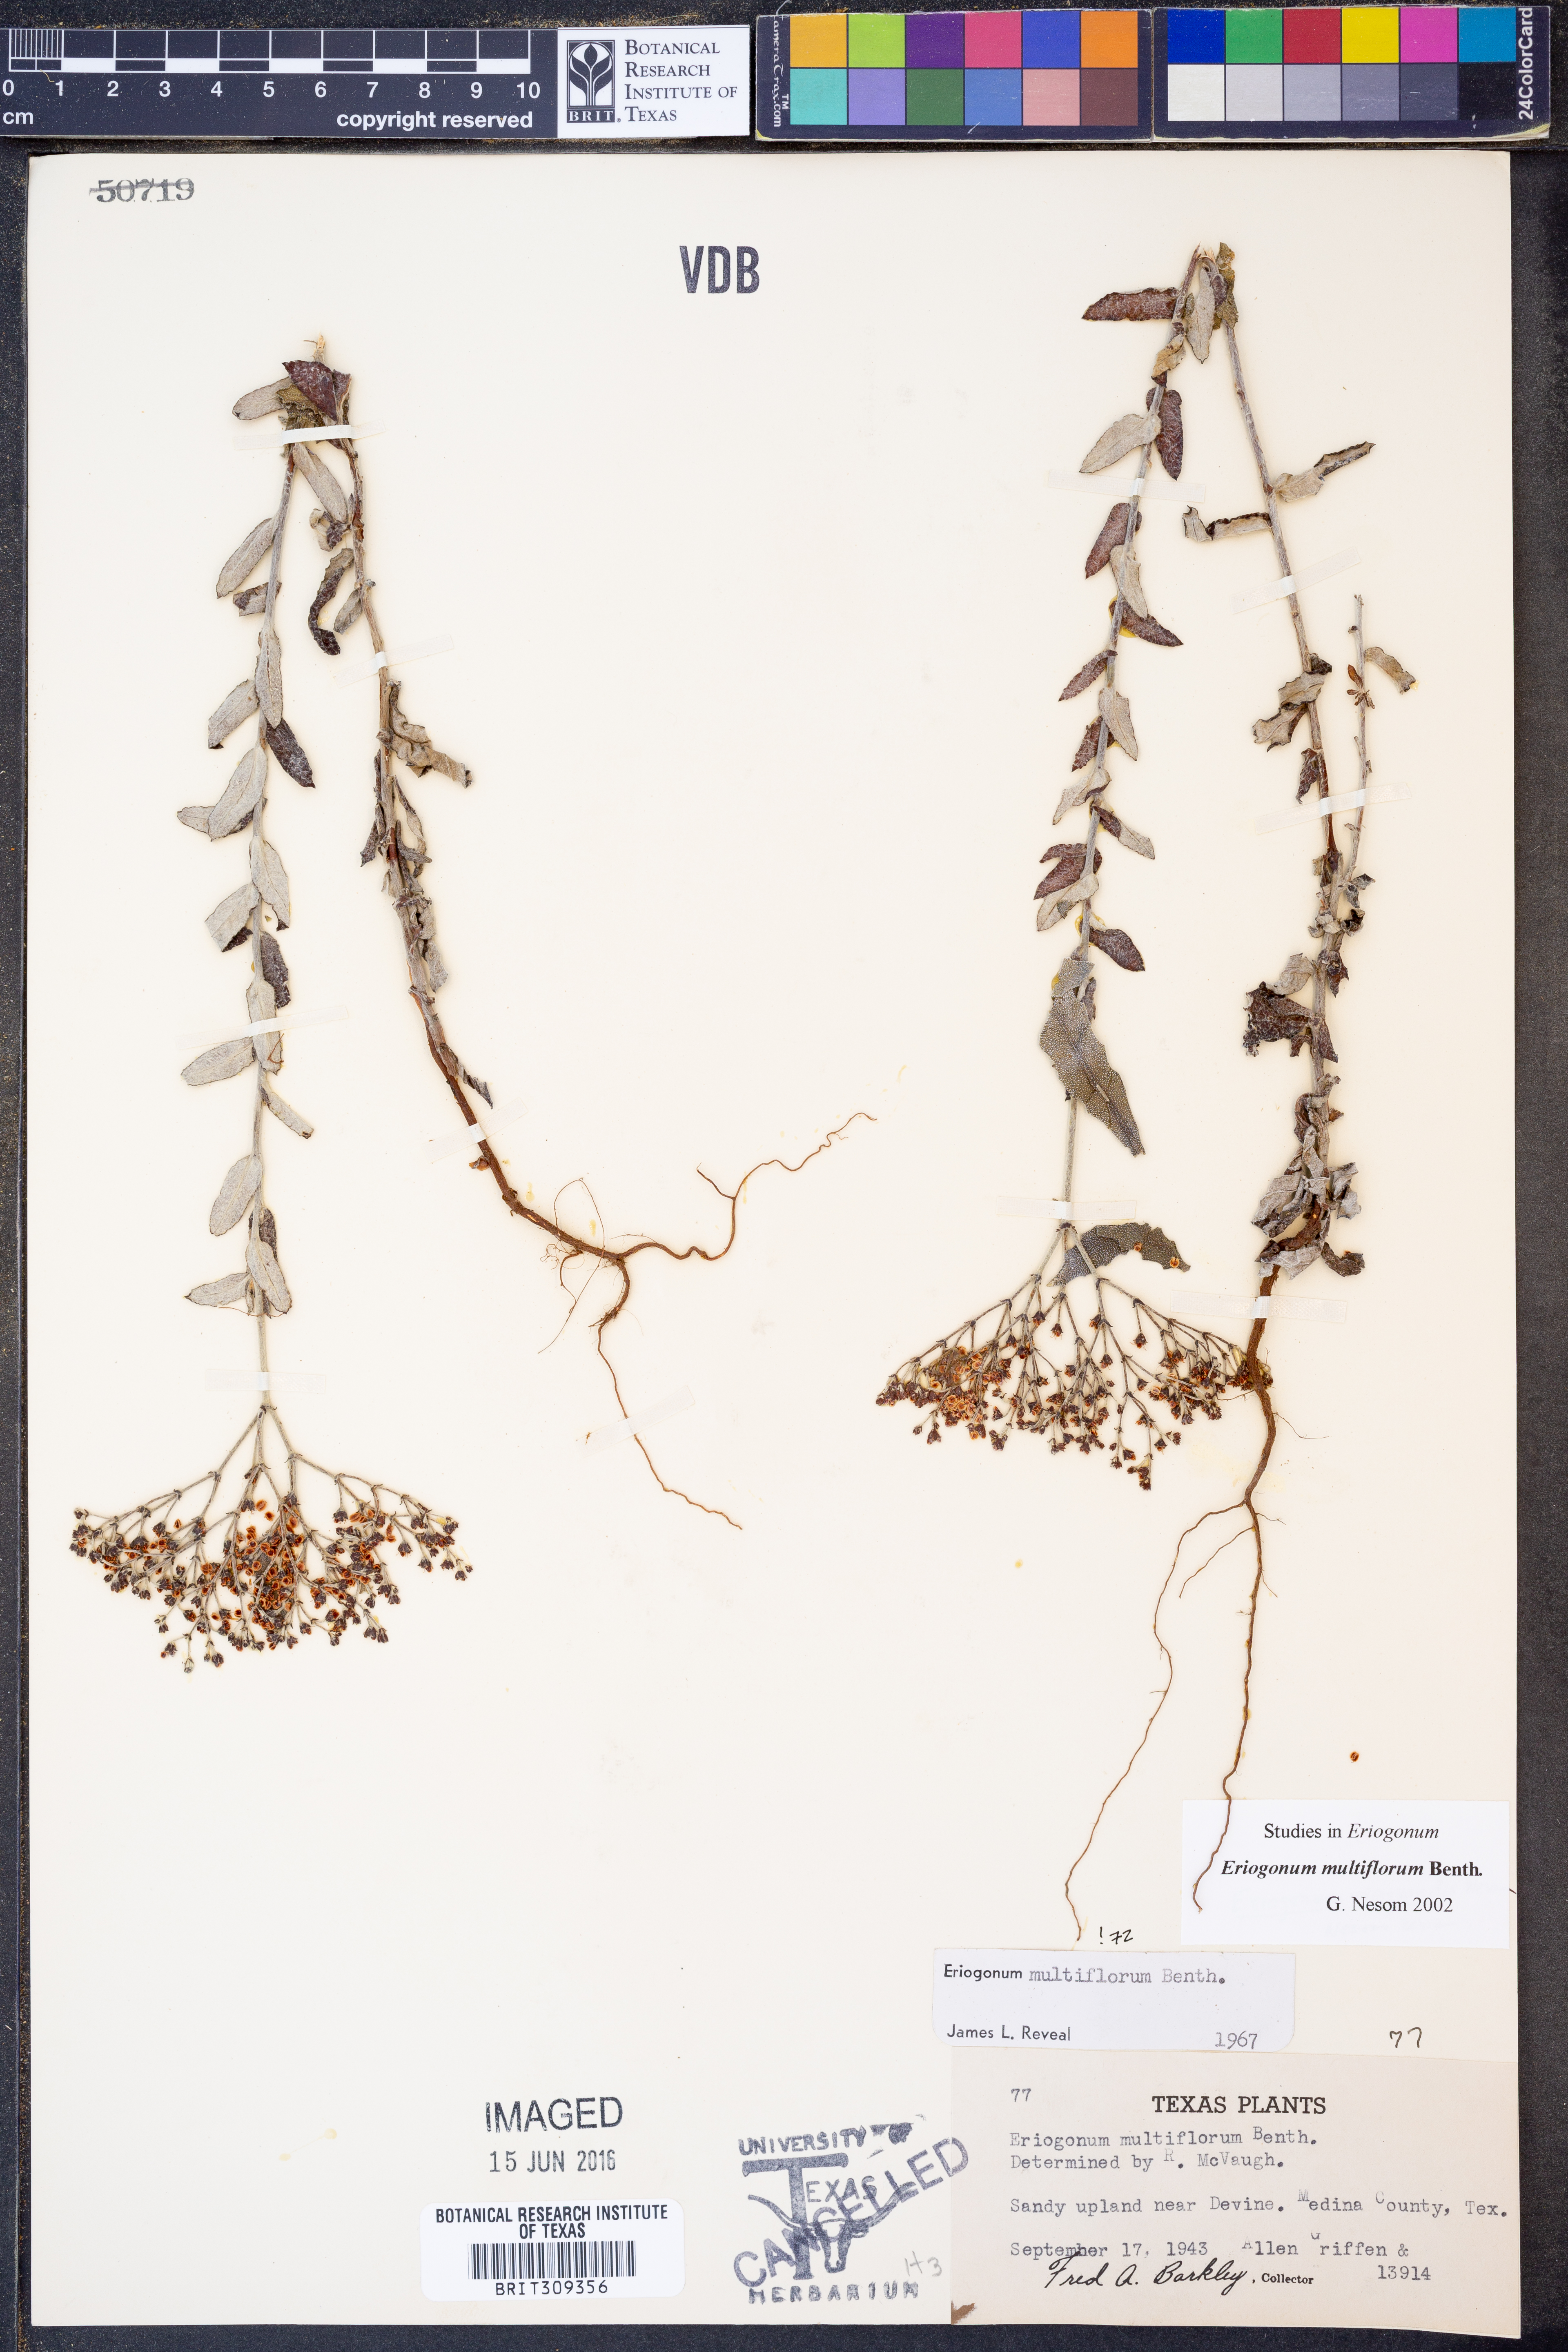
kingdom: Plantae
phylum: Tracheophyta
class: Magnoliopsida
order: Caryophyllales
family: Polygonaceae
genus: Eriogonum
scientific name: Eriogonum multiflorum
